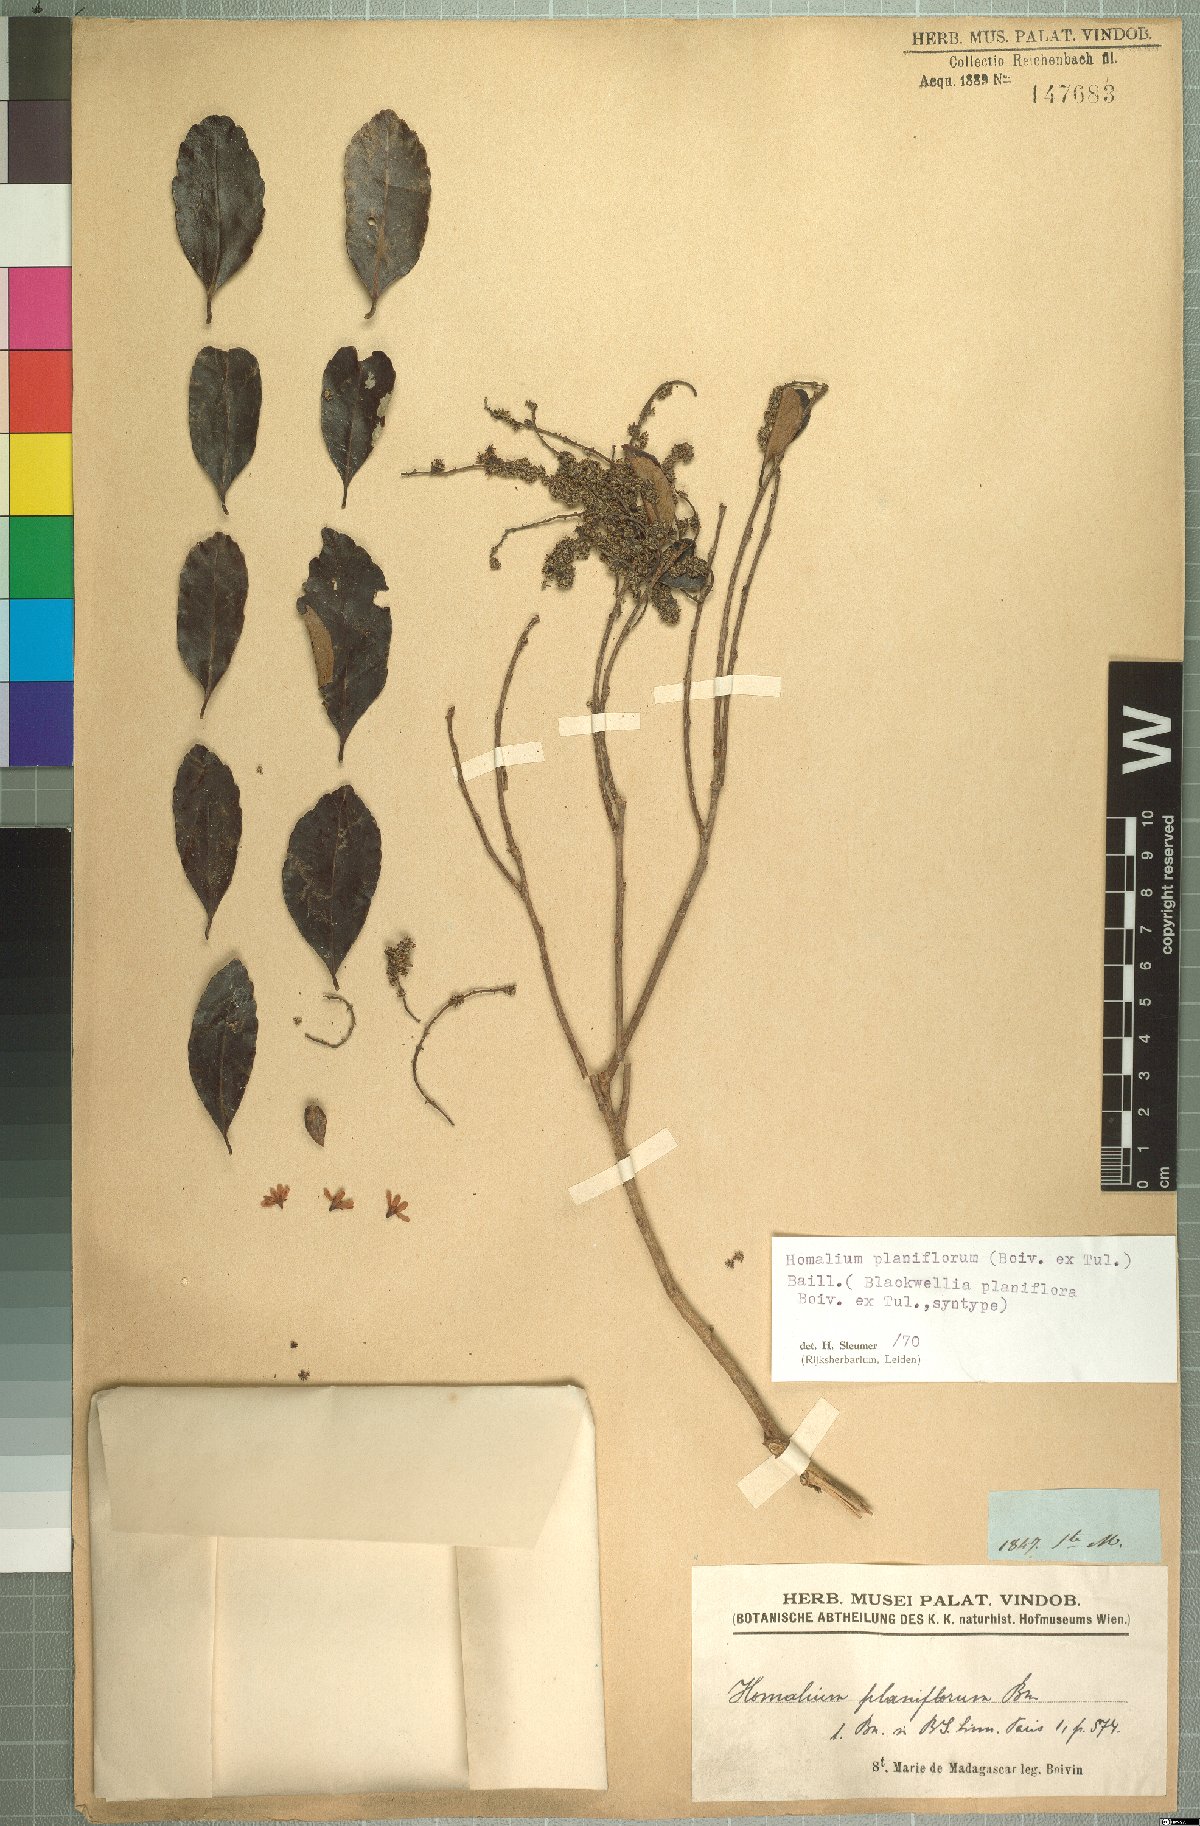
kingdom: Plantae
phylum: Tracheophyta
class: Magnoliopsida
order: Malpighiales
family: Salicaceae
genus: Homalium
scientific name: Homalium planiflorum
